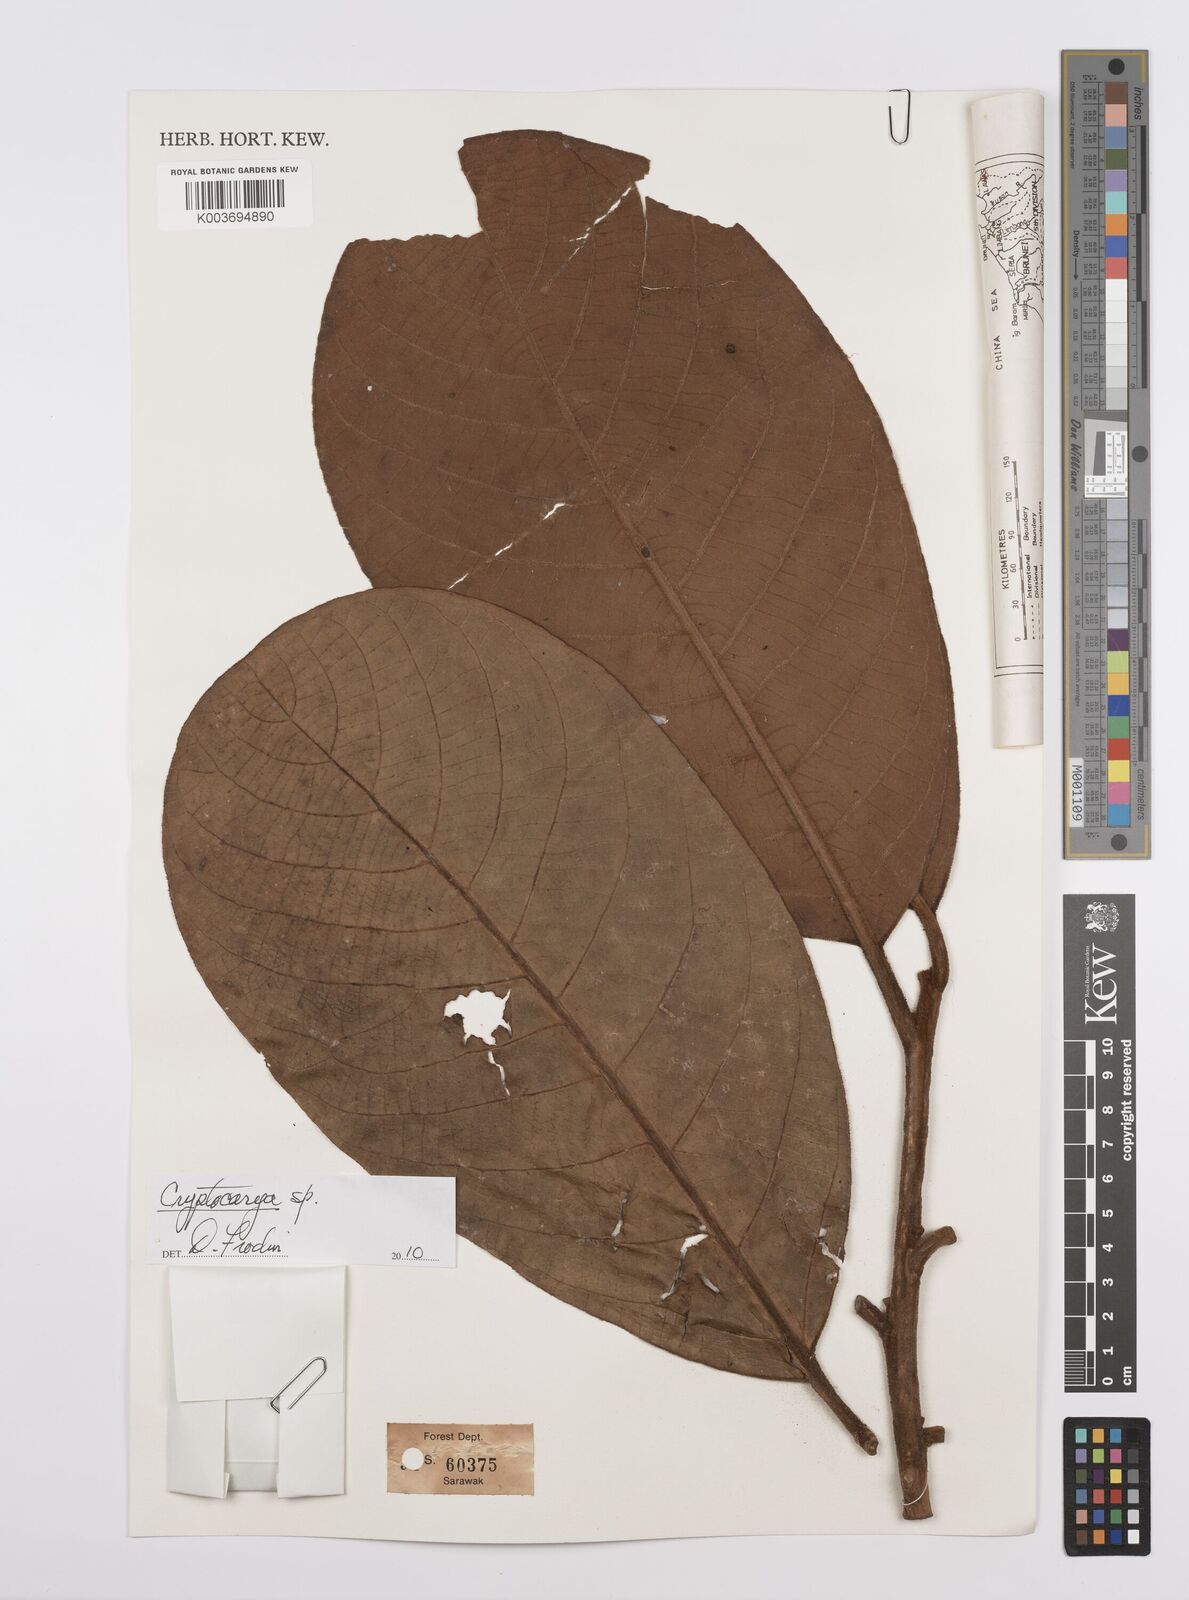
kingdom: Plantae
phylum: Tracheophyta
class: Magnoliopsida
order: Laurales
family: Lauraceae
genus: Cryptocarya
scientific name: Cryptocarya
